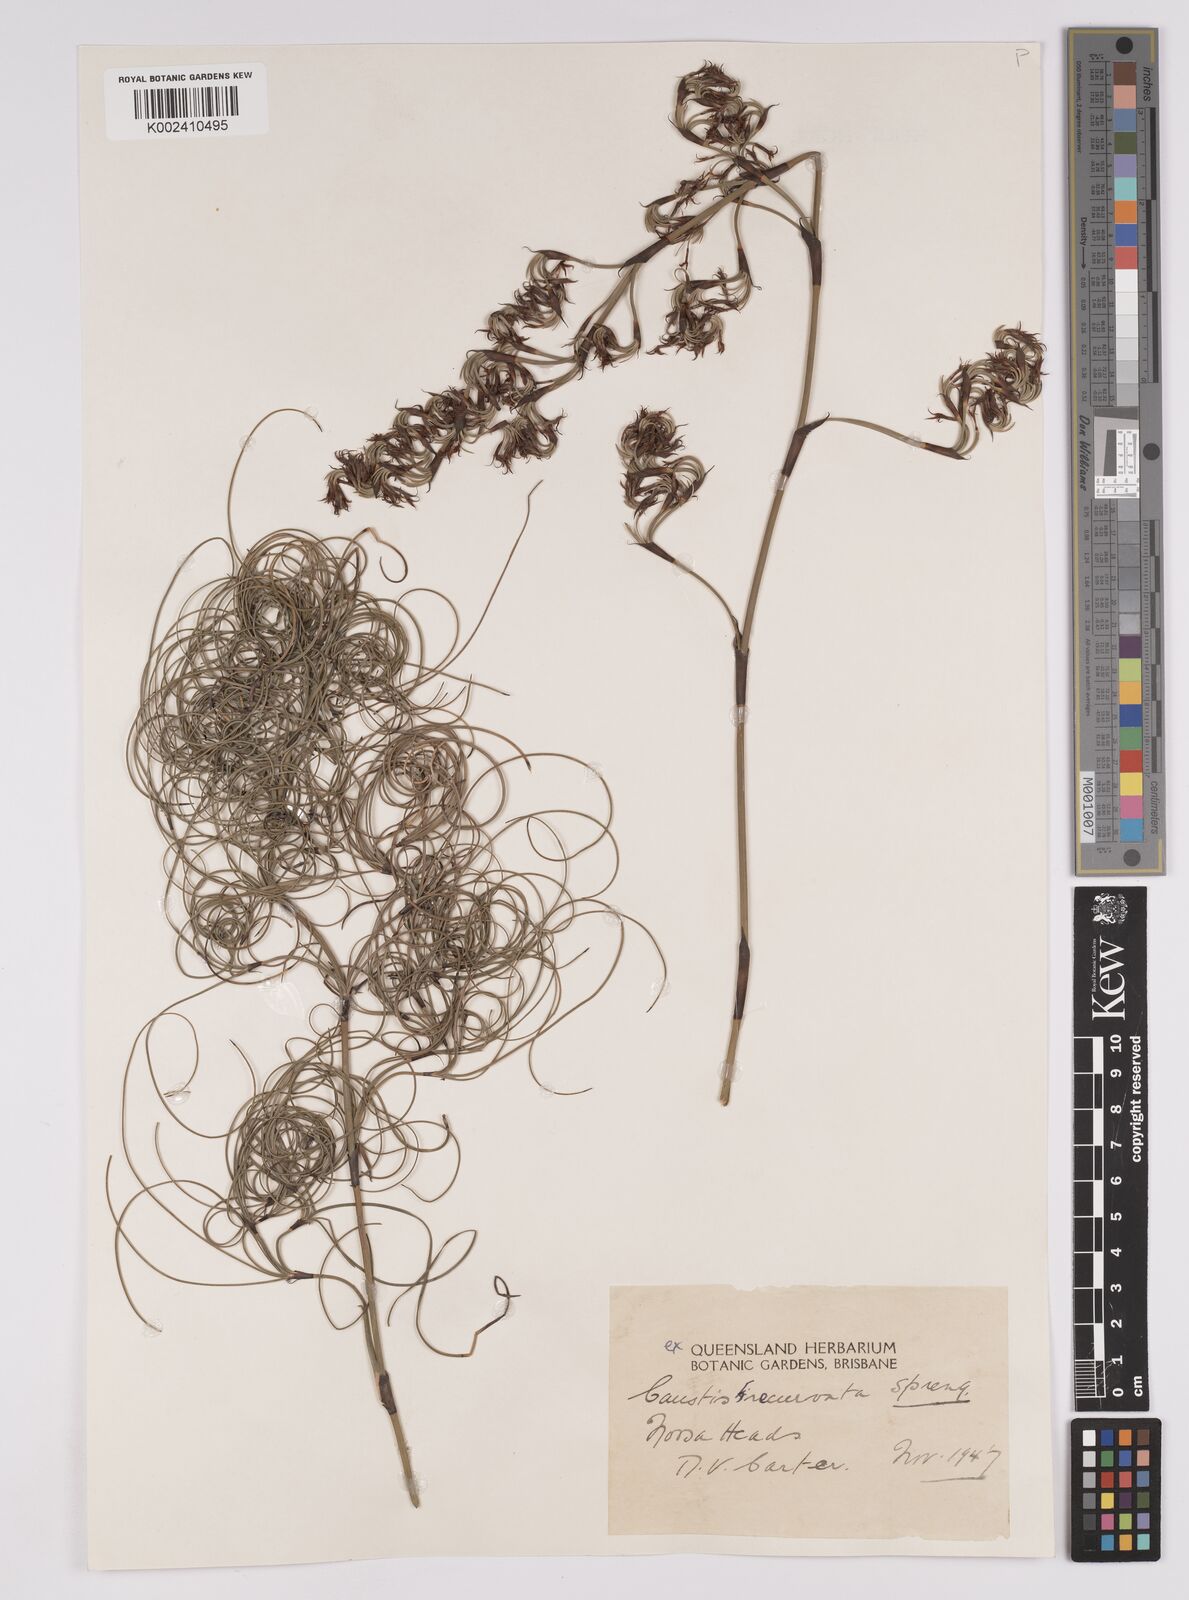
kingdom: Plantae
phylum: Tracheophyta
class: Liliopsida
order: Poales
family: Cyperaceae
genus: Caustis
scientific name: Caustis recurvata
